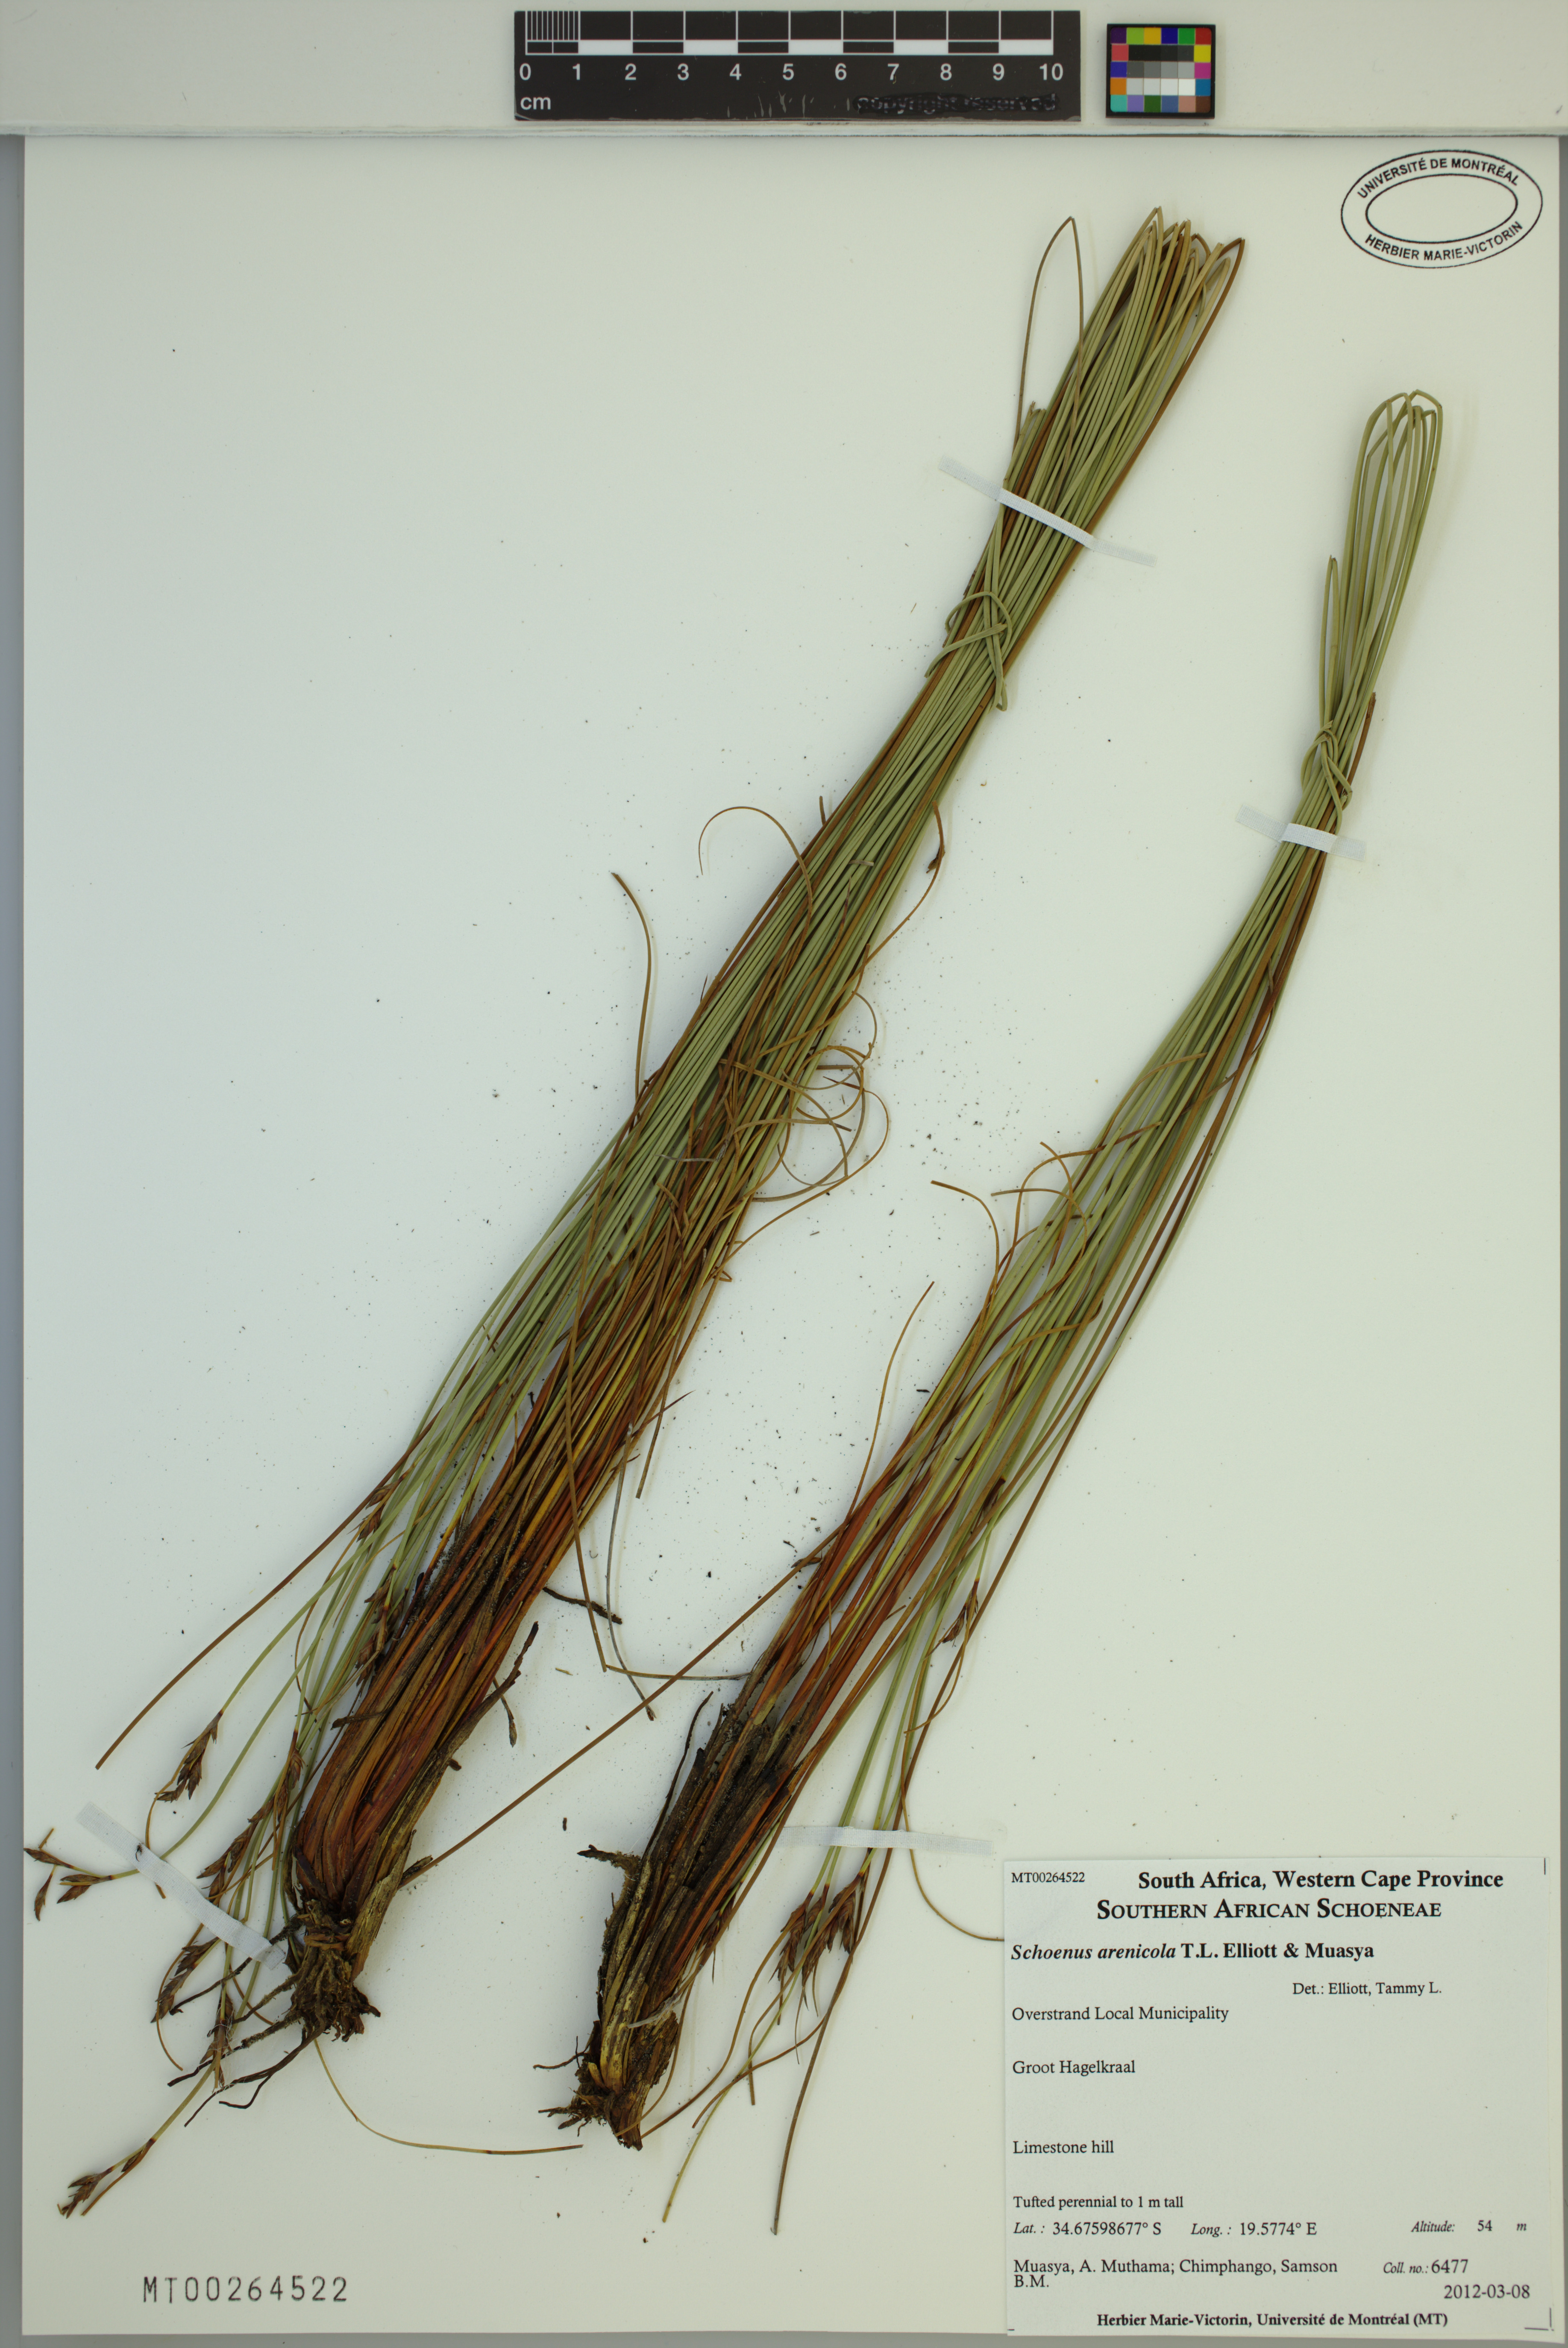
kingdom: Plantae
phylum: Tracheophyta
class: Liliopsida
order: Poales
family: Cyperaceae
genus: Schoenus
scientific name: Schoenus arenicola
